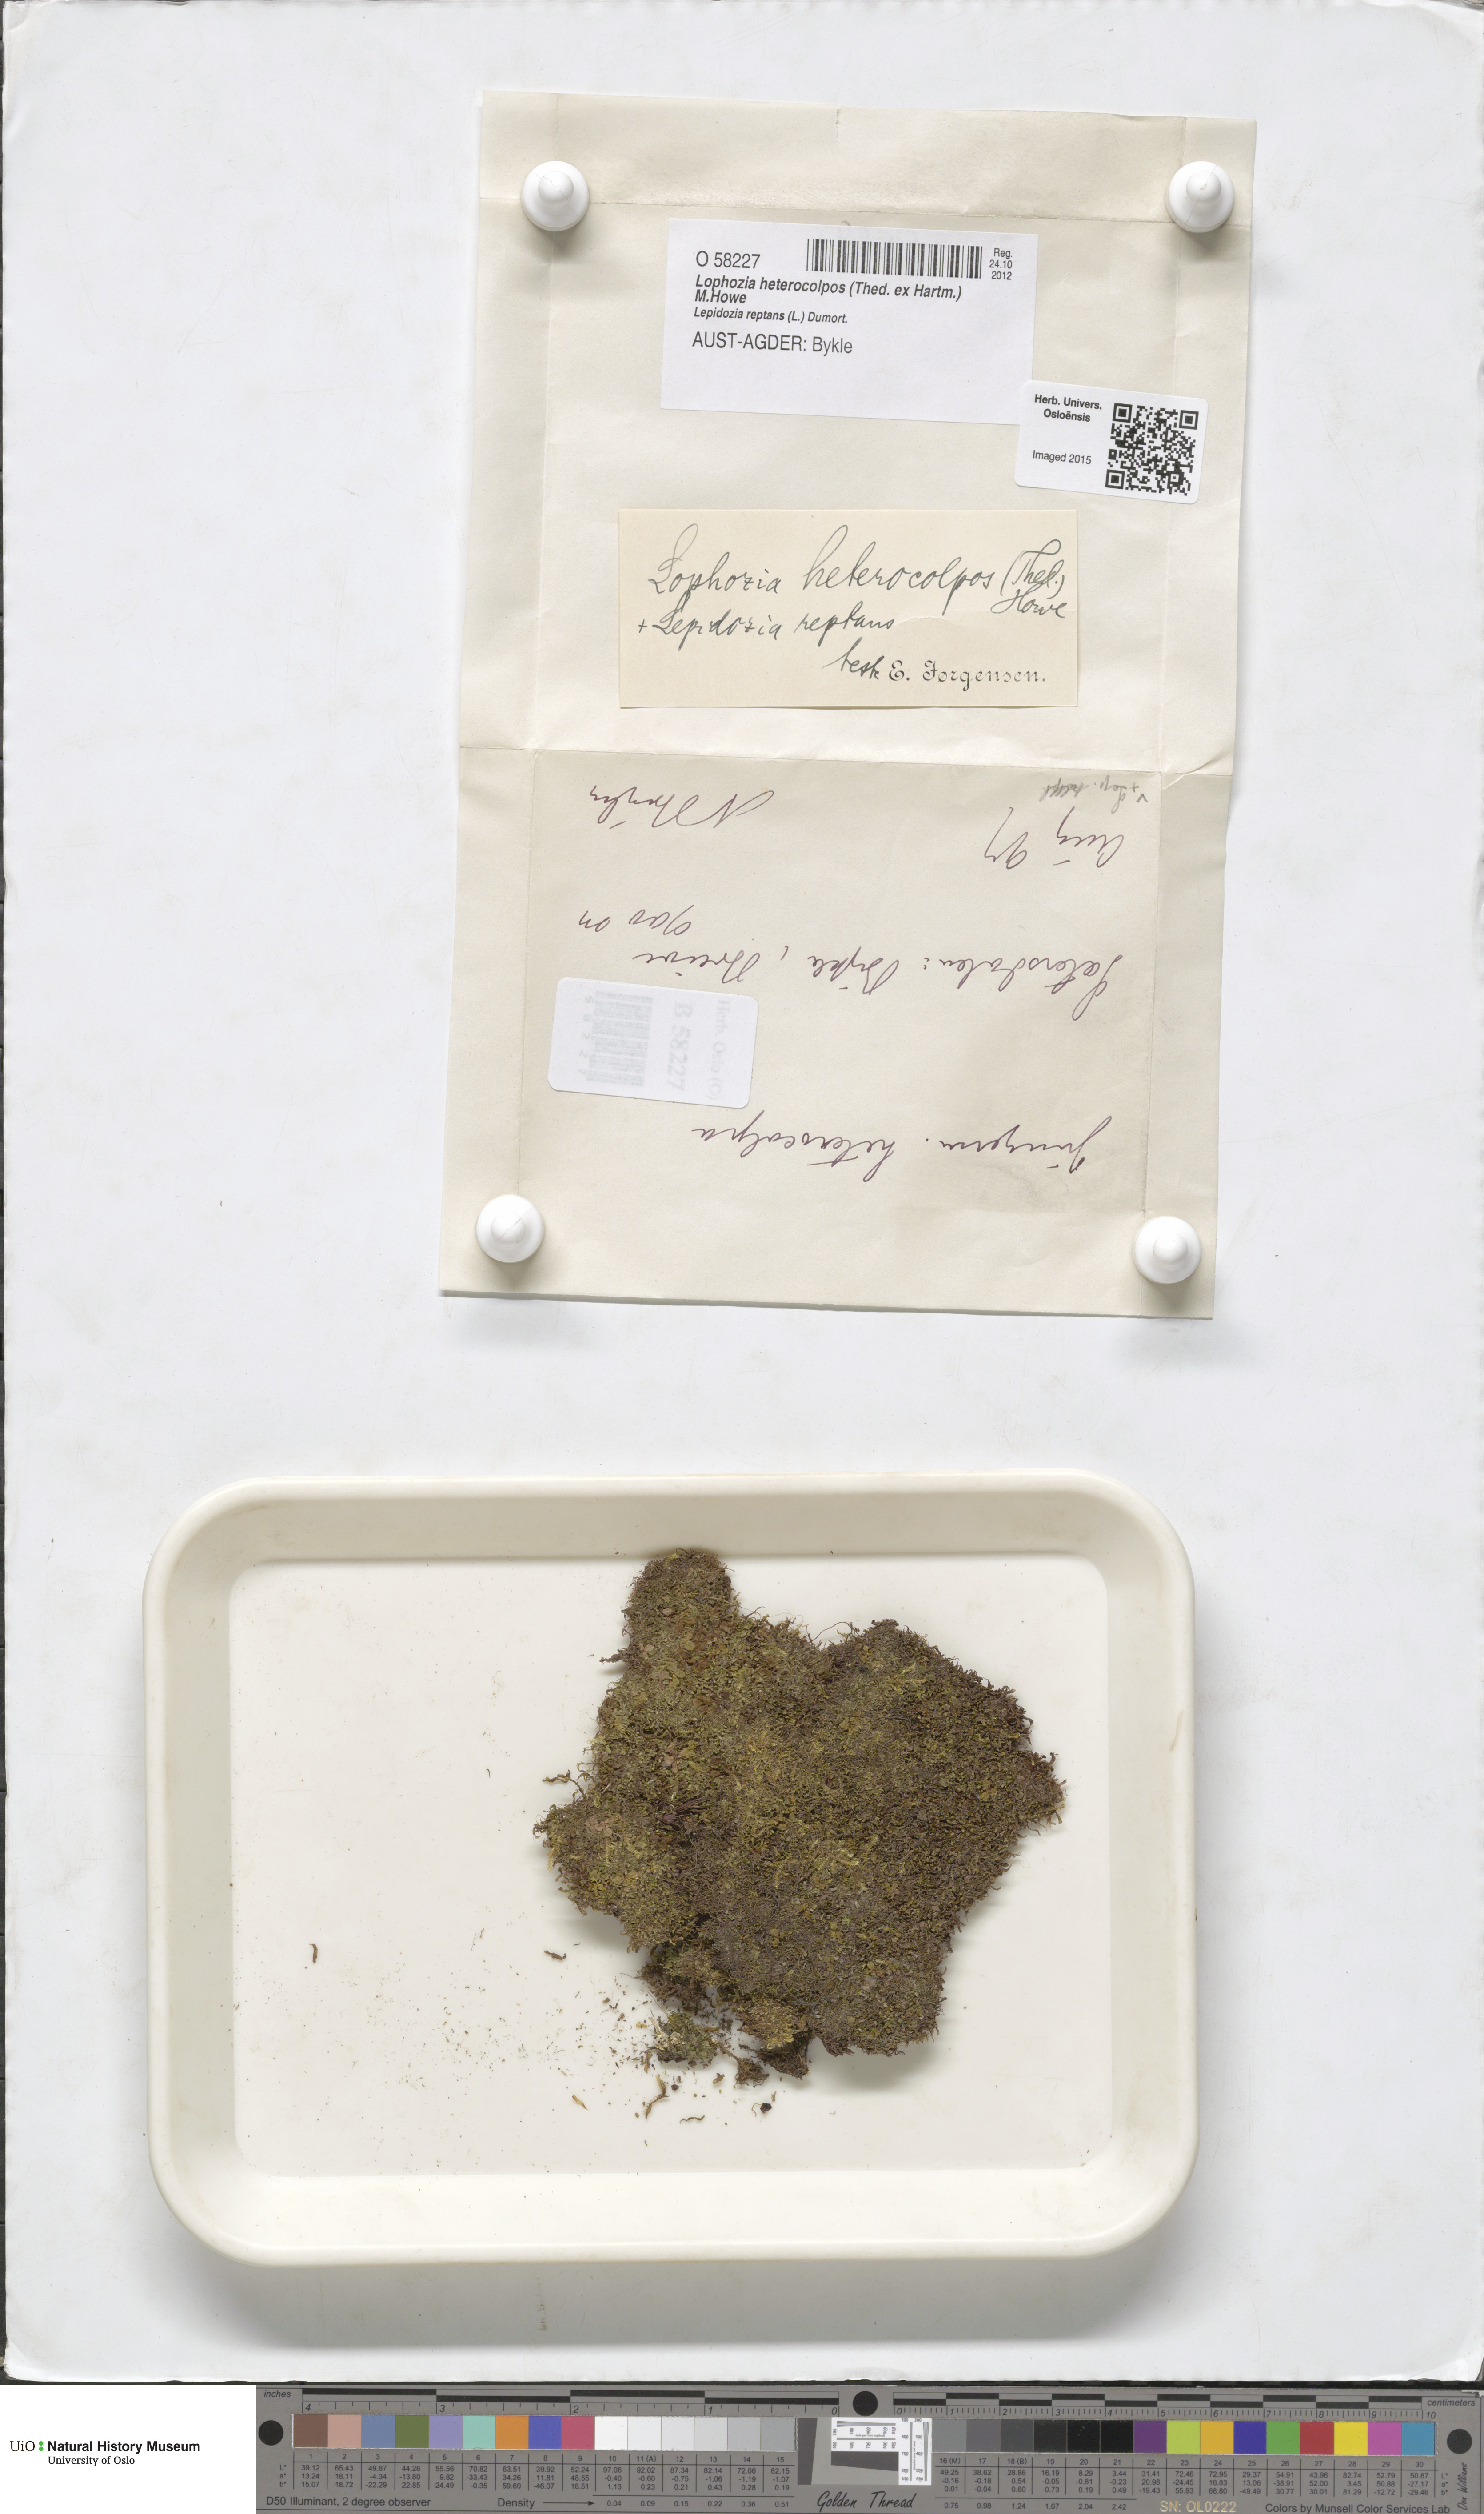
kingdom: Plantae
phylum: Marchantiophyta
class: Jungermanniopsida
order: Jungermanniales
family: Jungermanniaceae
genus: Mesoptychia
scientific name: Mesoptychia heterocolpos
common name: Ragged notchwort
